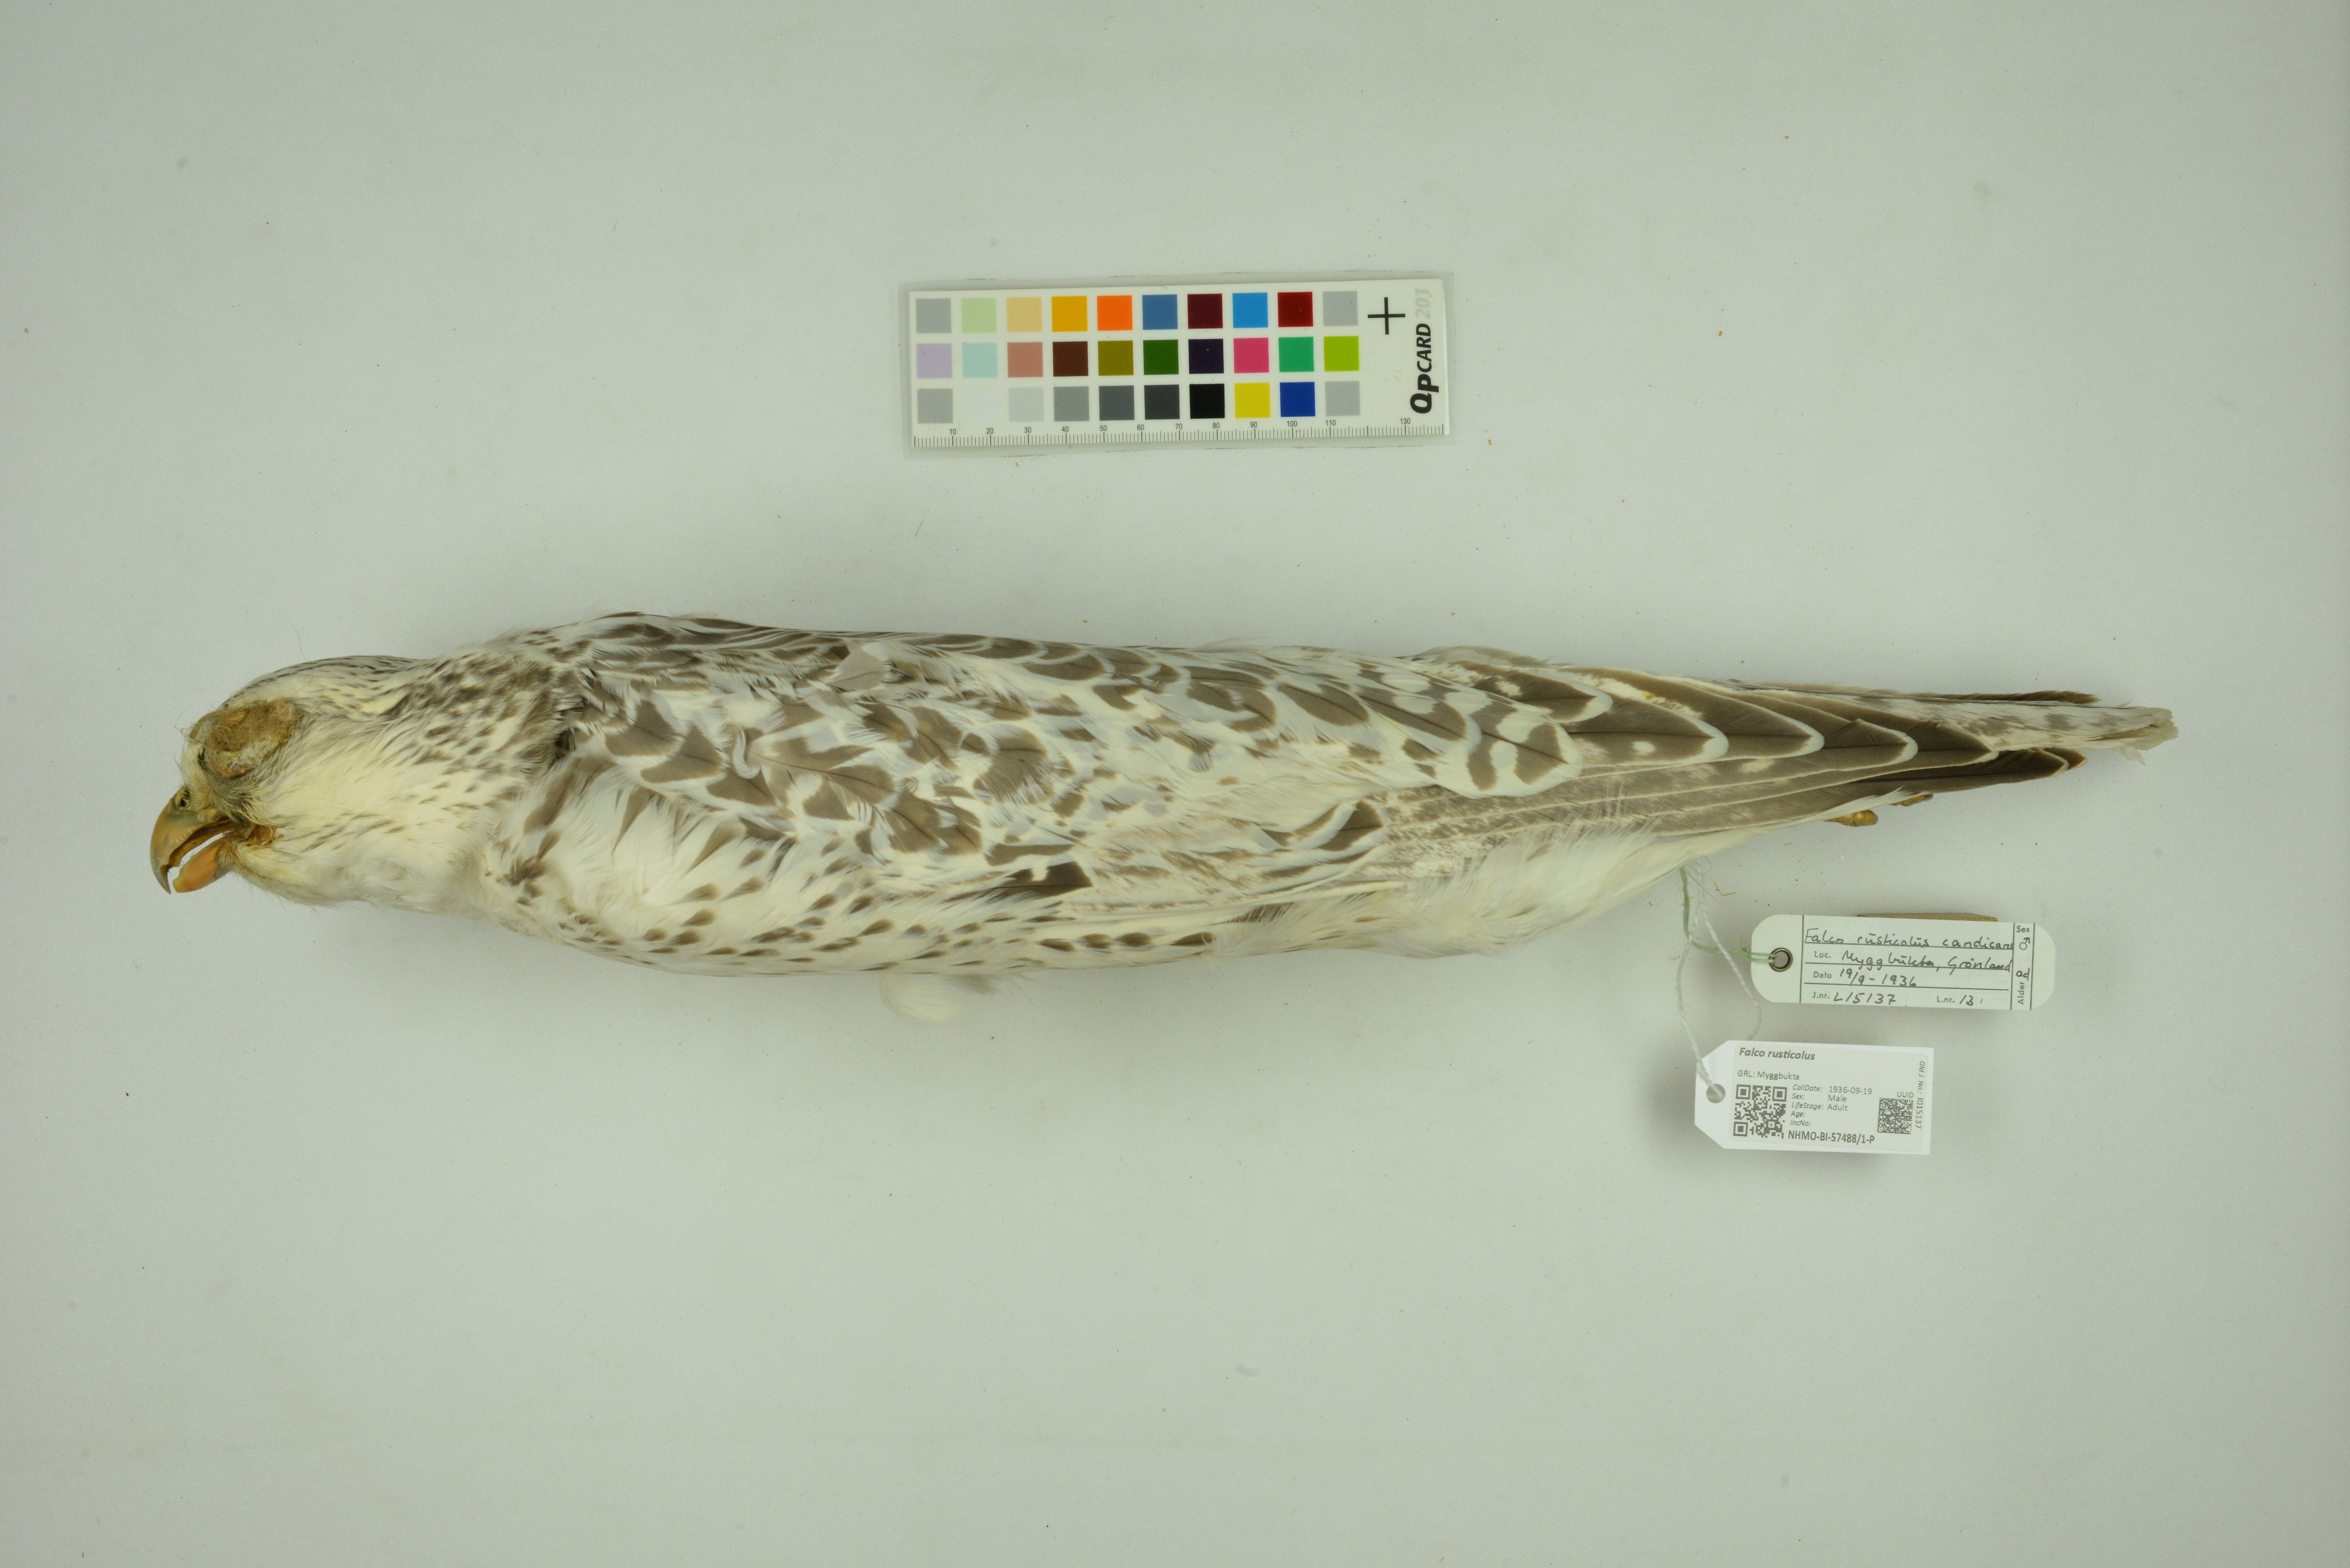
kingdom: Animalia
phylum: Chordata
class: Aves
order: Falconiformes
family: Falconidae
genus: Falco
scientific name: Falco rusticolus
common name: Gyrfalcon
